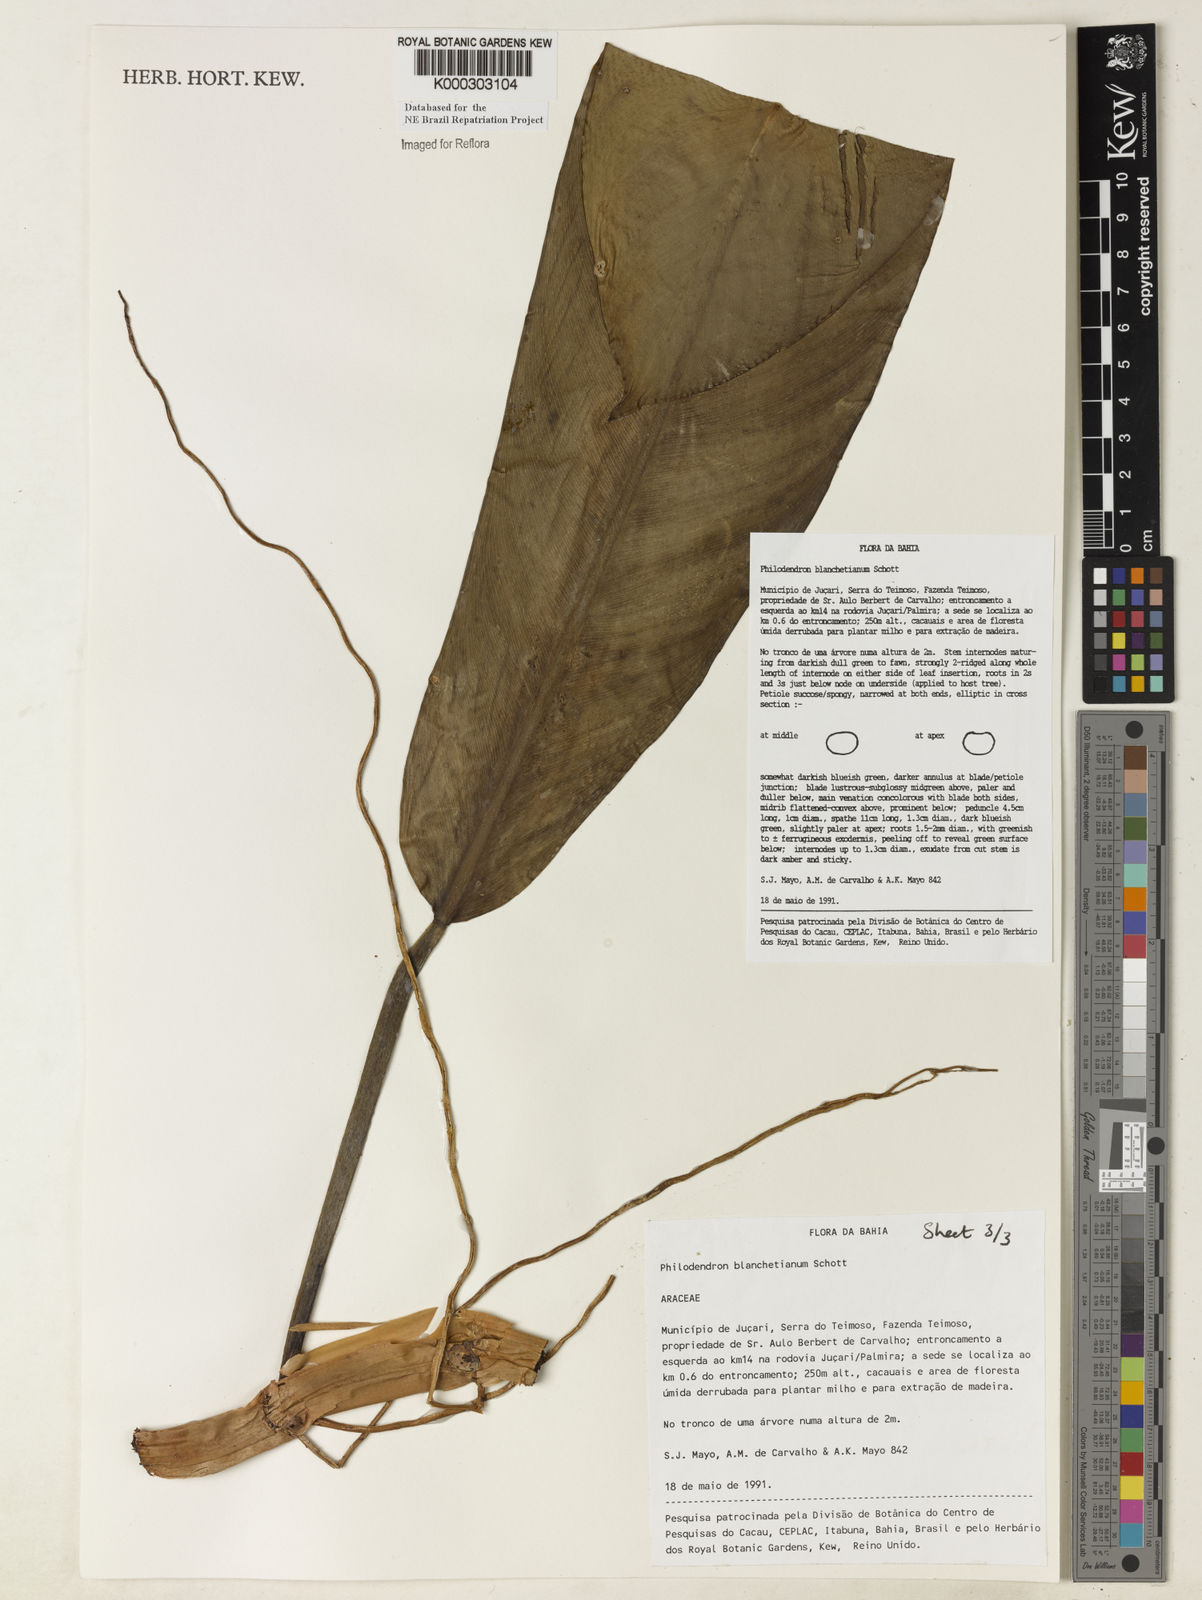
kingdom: Plantae
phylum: Tracheophyta
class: Liliopsida
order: Alismatales
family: Araceae
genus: Philodendron
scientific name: Philodendron blanchetianum
